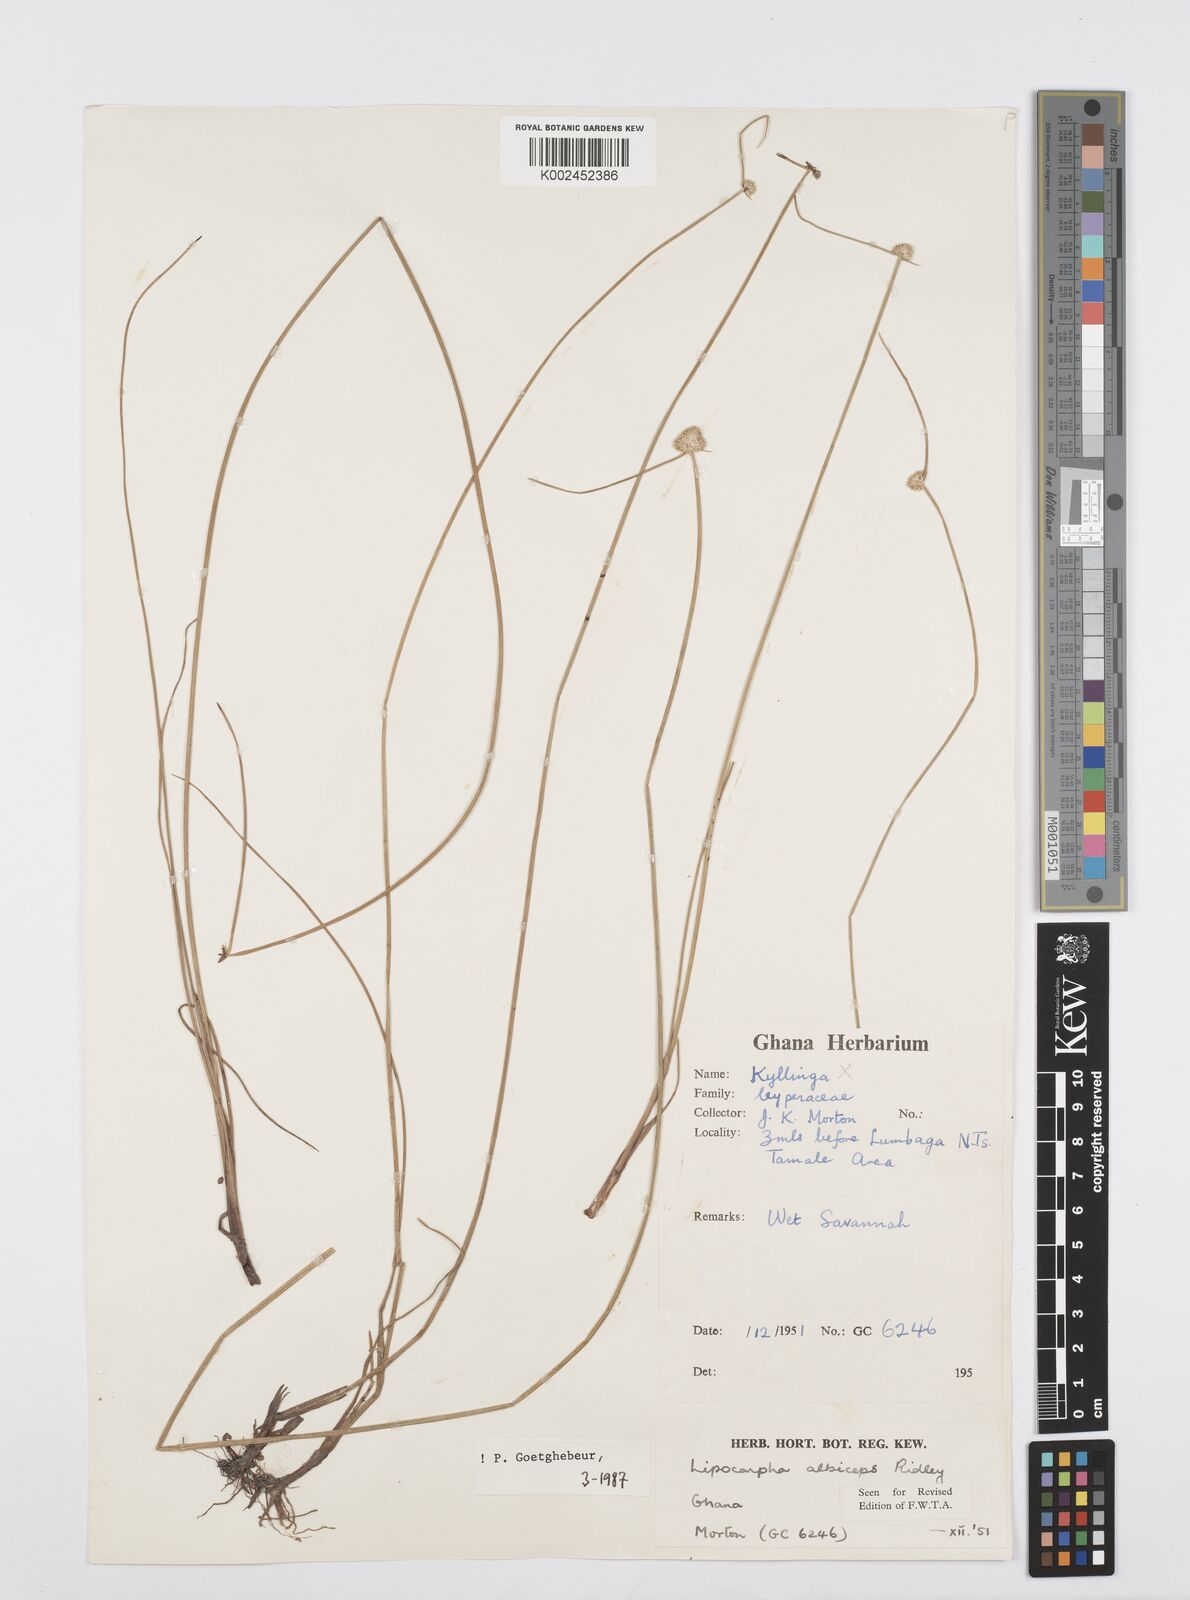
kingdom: Plantae
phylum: Tracheophyta
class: Liliopsida
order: Poales
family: Cyperaceae
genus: Cyperus
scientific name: Cyperus albiceps
